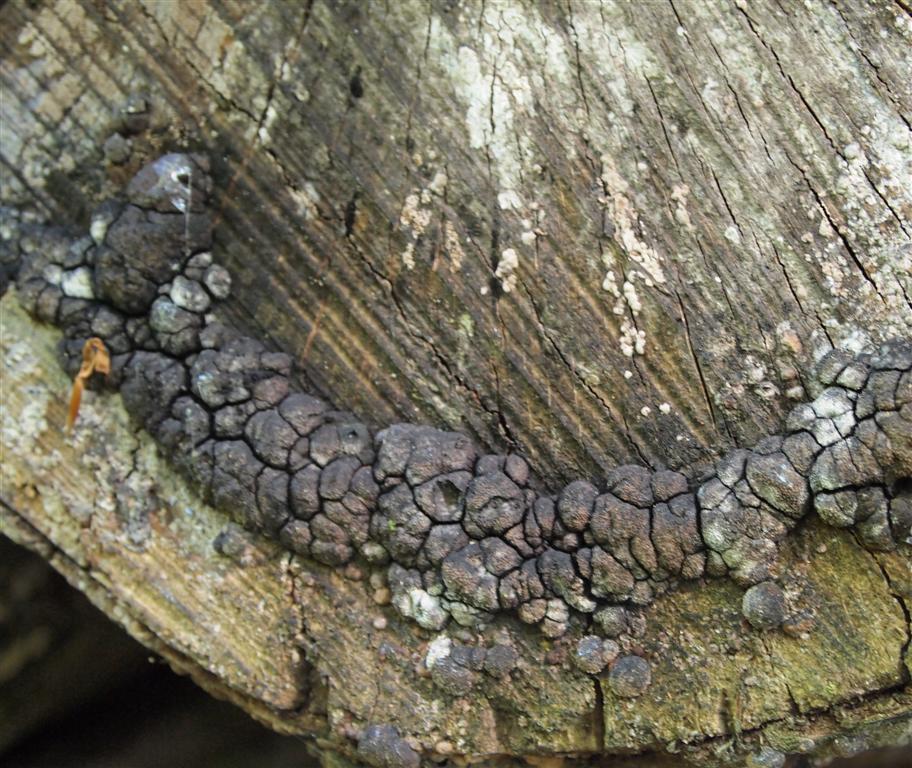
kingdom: Fungi
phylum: Ascomycota
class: Sordariomycetes
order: Xylariales
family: Hypoxylaceae
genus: Jackrogersella
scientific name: Jackrogersella cohaerens
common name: sammenflydende kulbær
